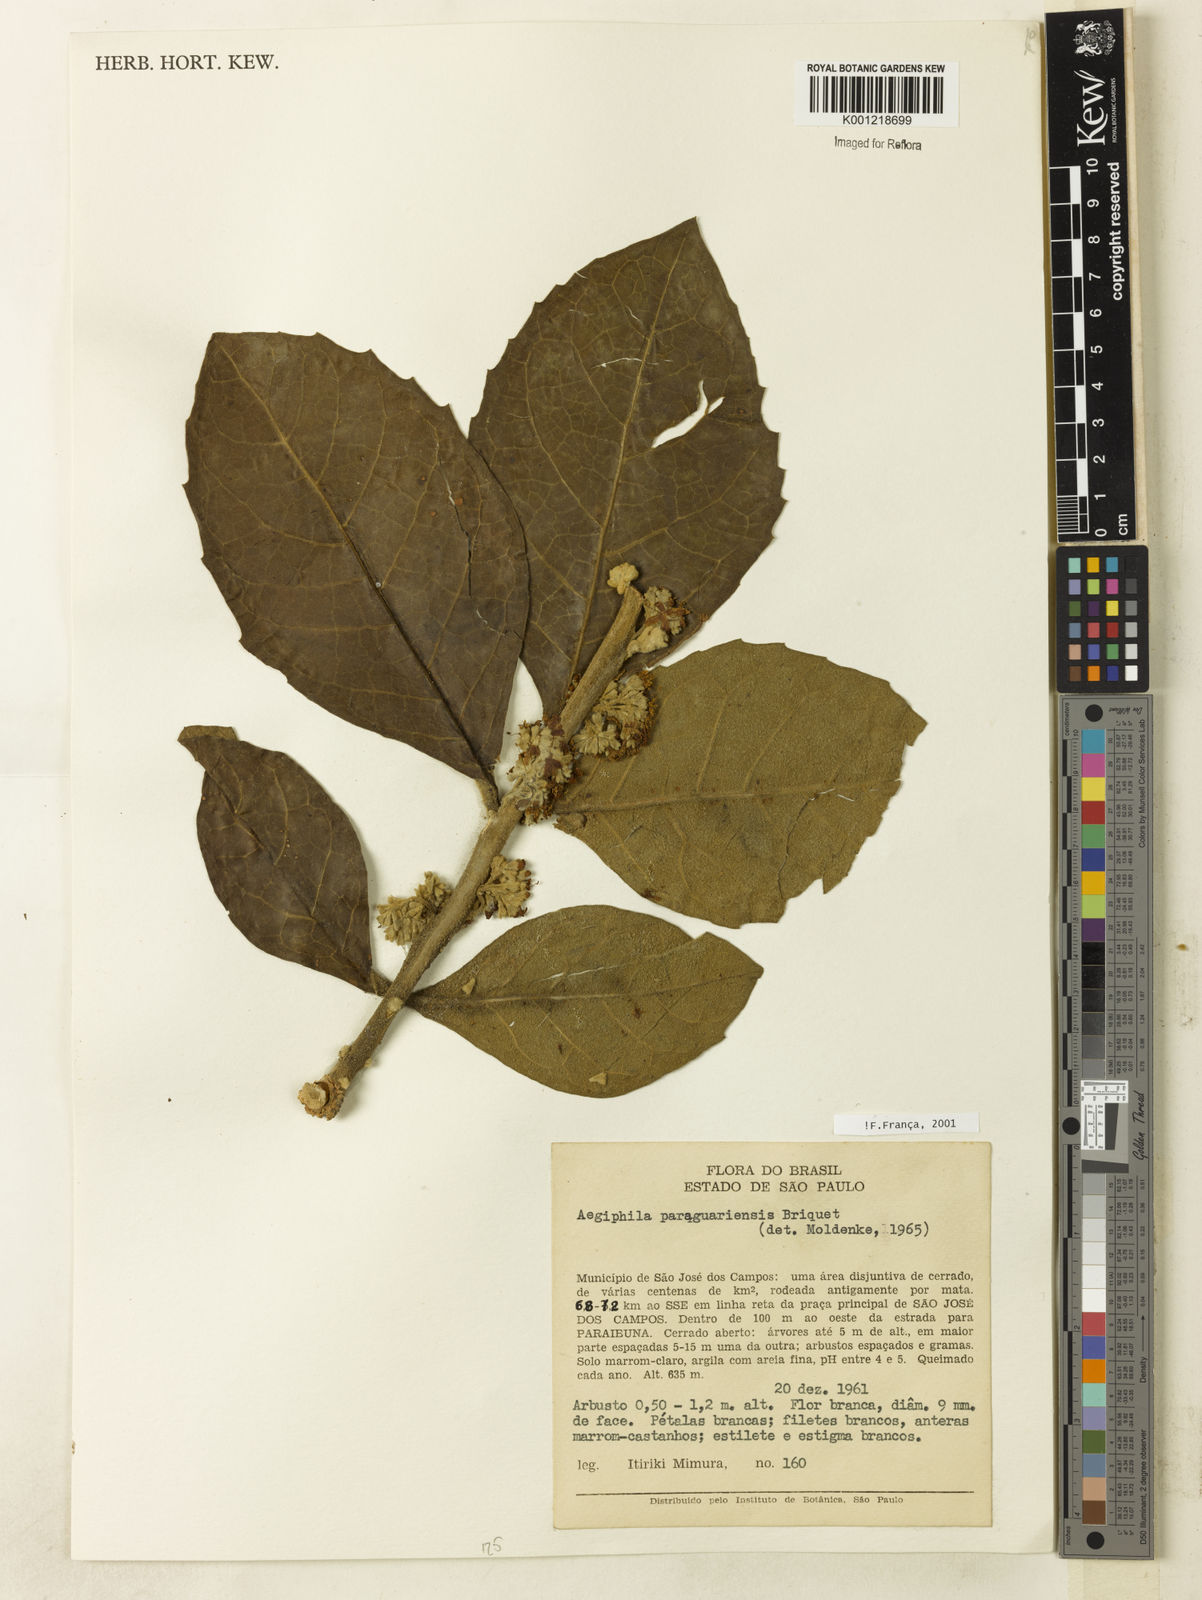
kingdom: Plantae
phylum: Tracheophyta
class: Magnoliopsida
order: Lamiales
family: Lamiaceae
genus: Aegiphila
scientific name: Aegiphila paraguariensis
